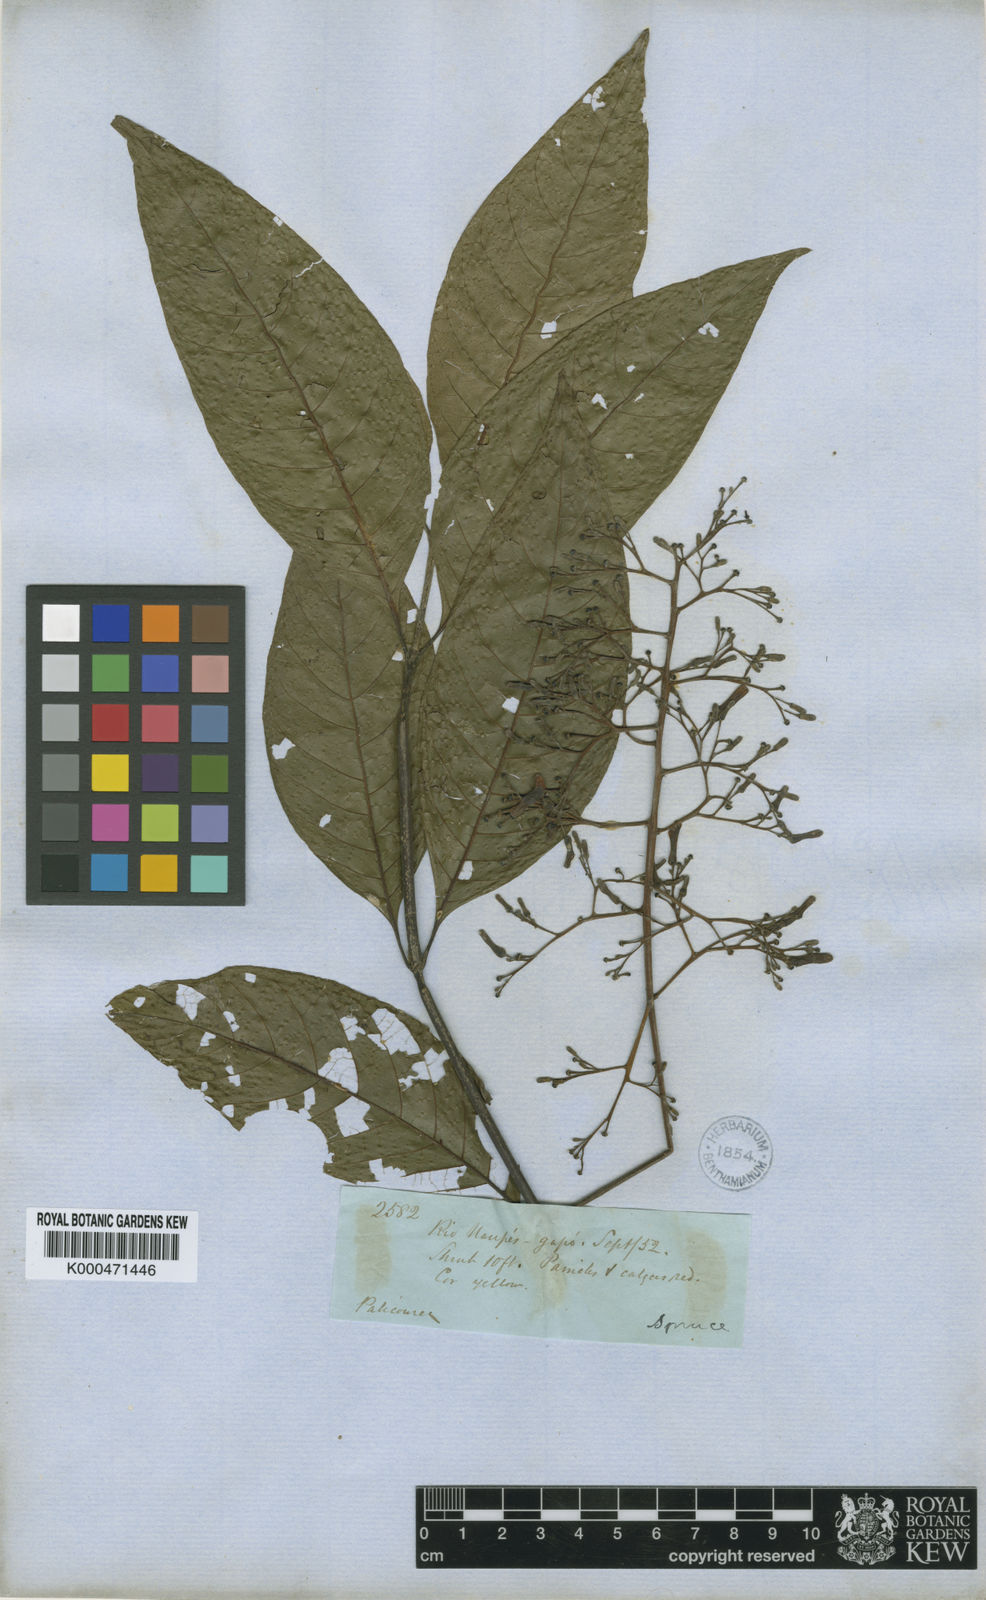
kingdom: Plantae
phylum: Tracheophyta
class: Magnoliopsida
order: Gentianales
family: Rubiaceae
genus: Palicourea
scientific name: Palicourea
